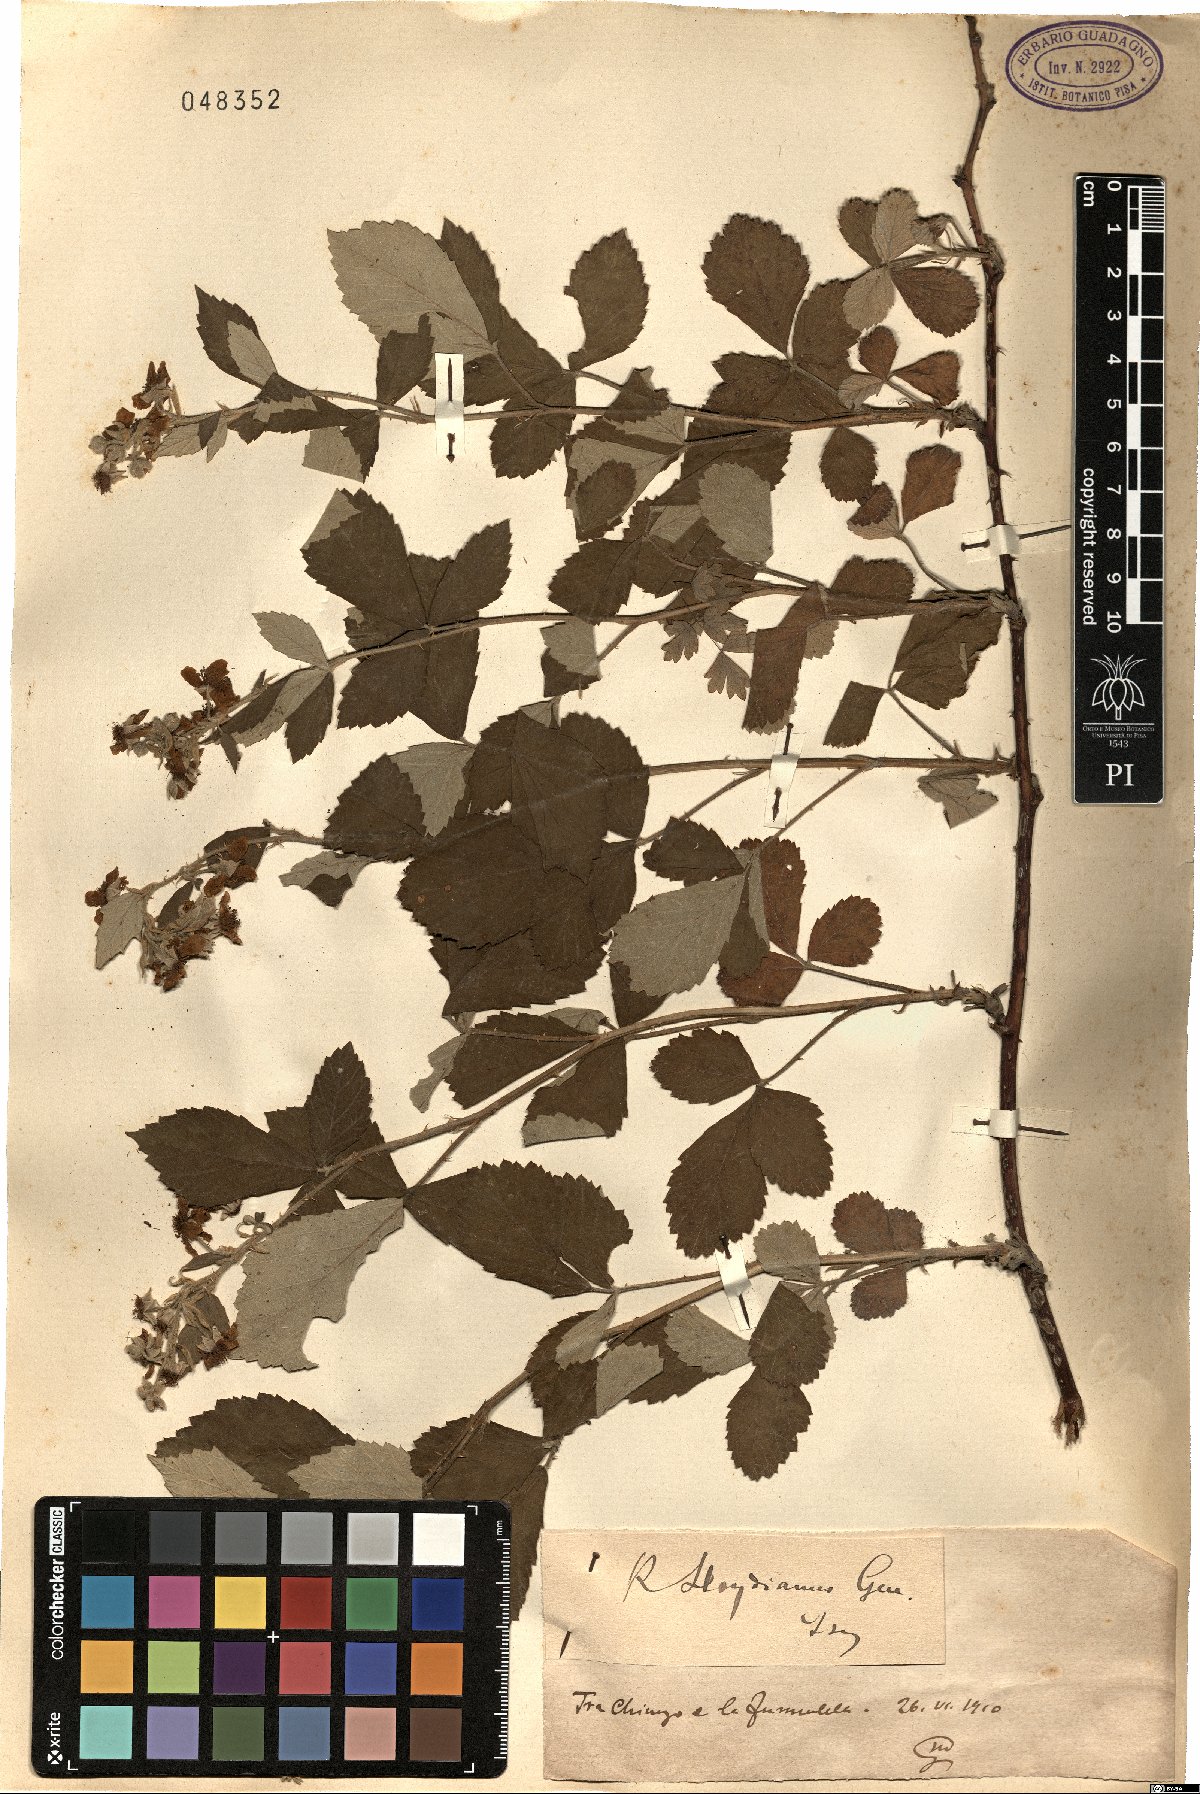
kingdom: Plantae
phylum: Tracheophyta
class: Magnoliopsida
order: Rosales
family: Rosaceae
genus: Rubus
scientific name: Rubus aetnicus
